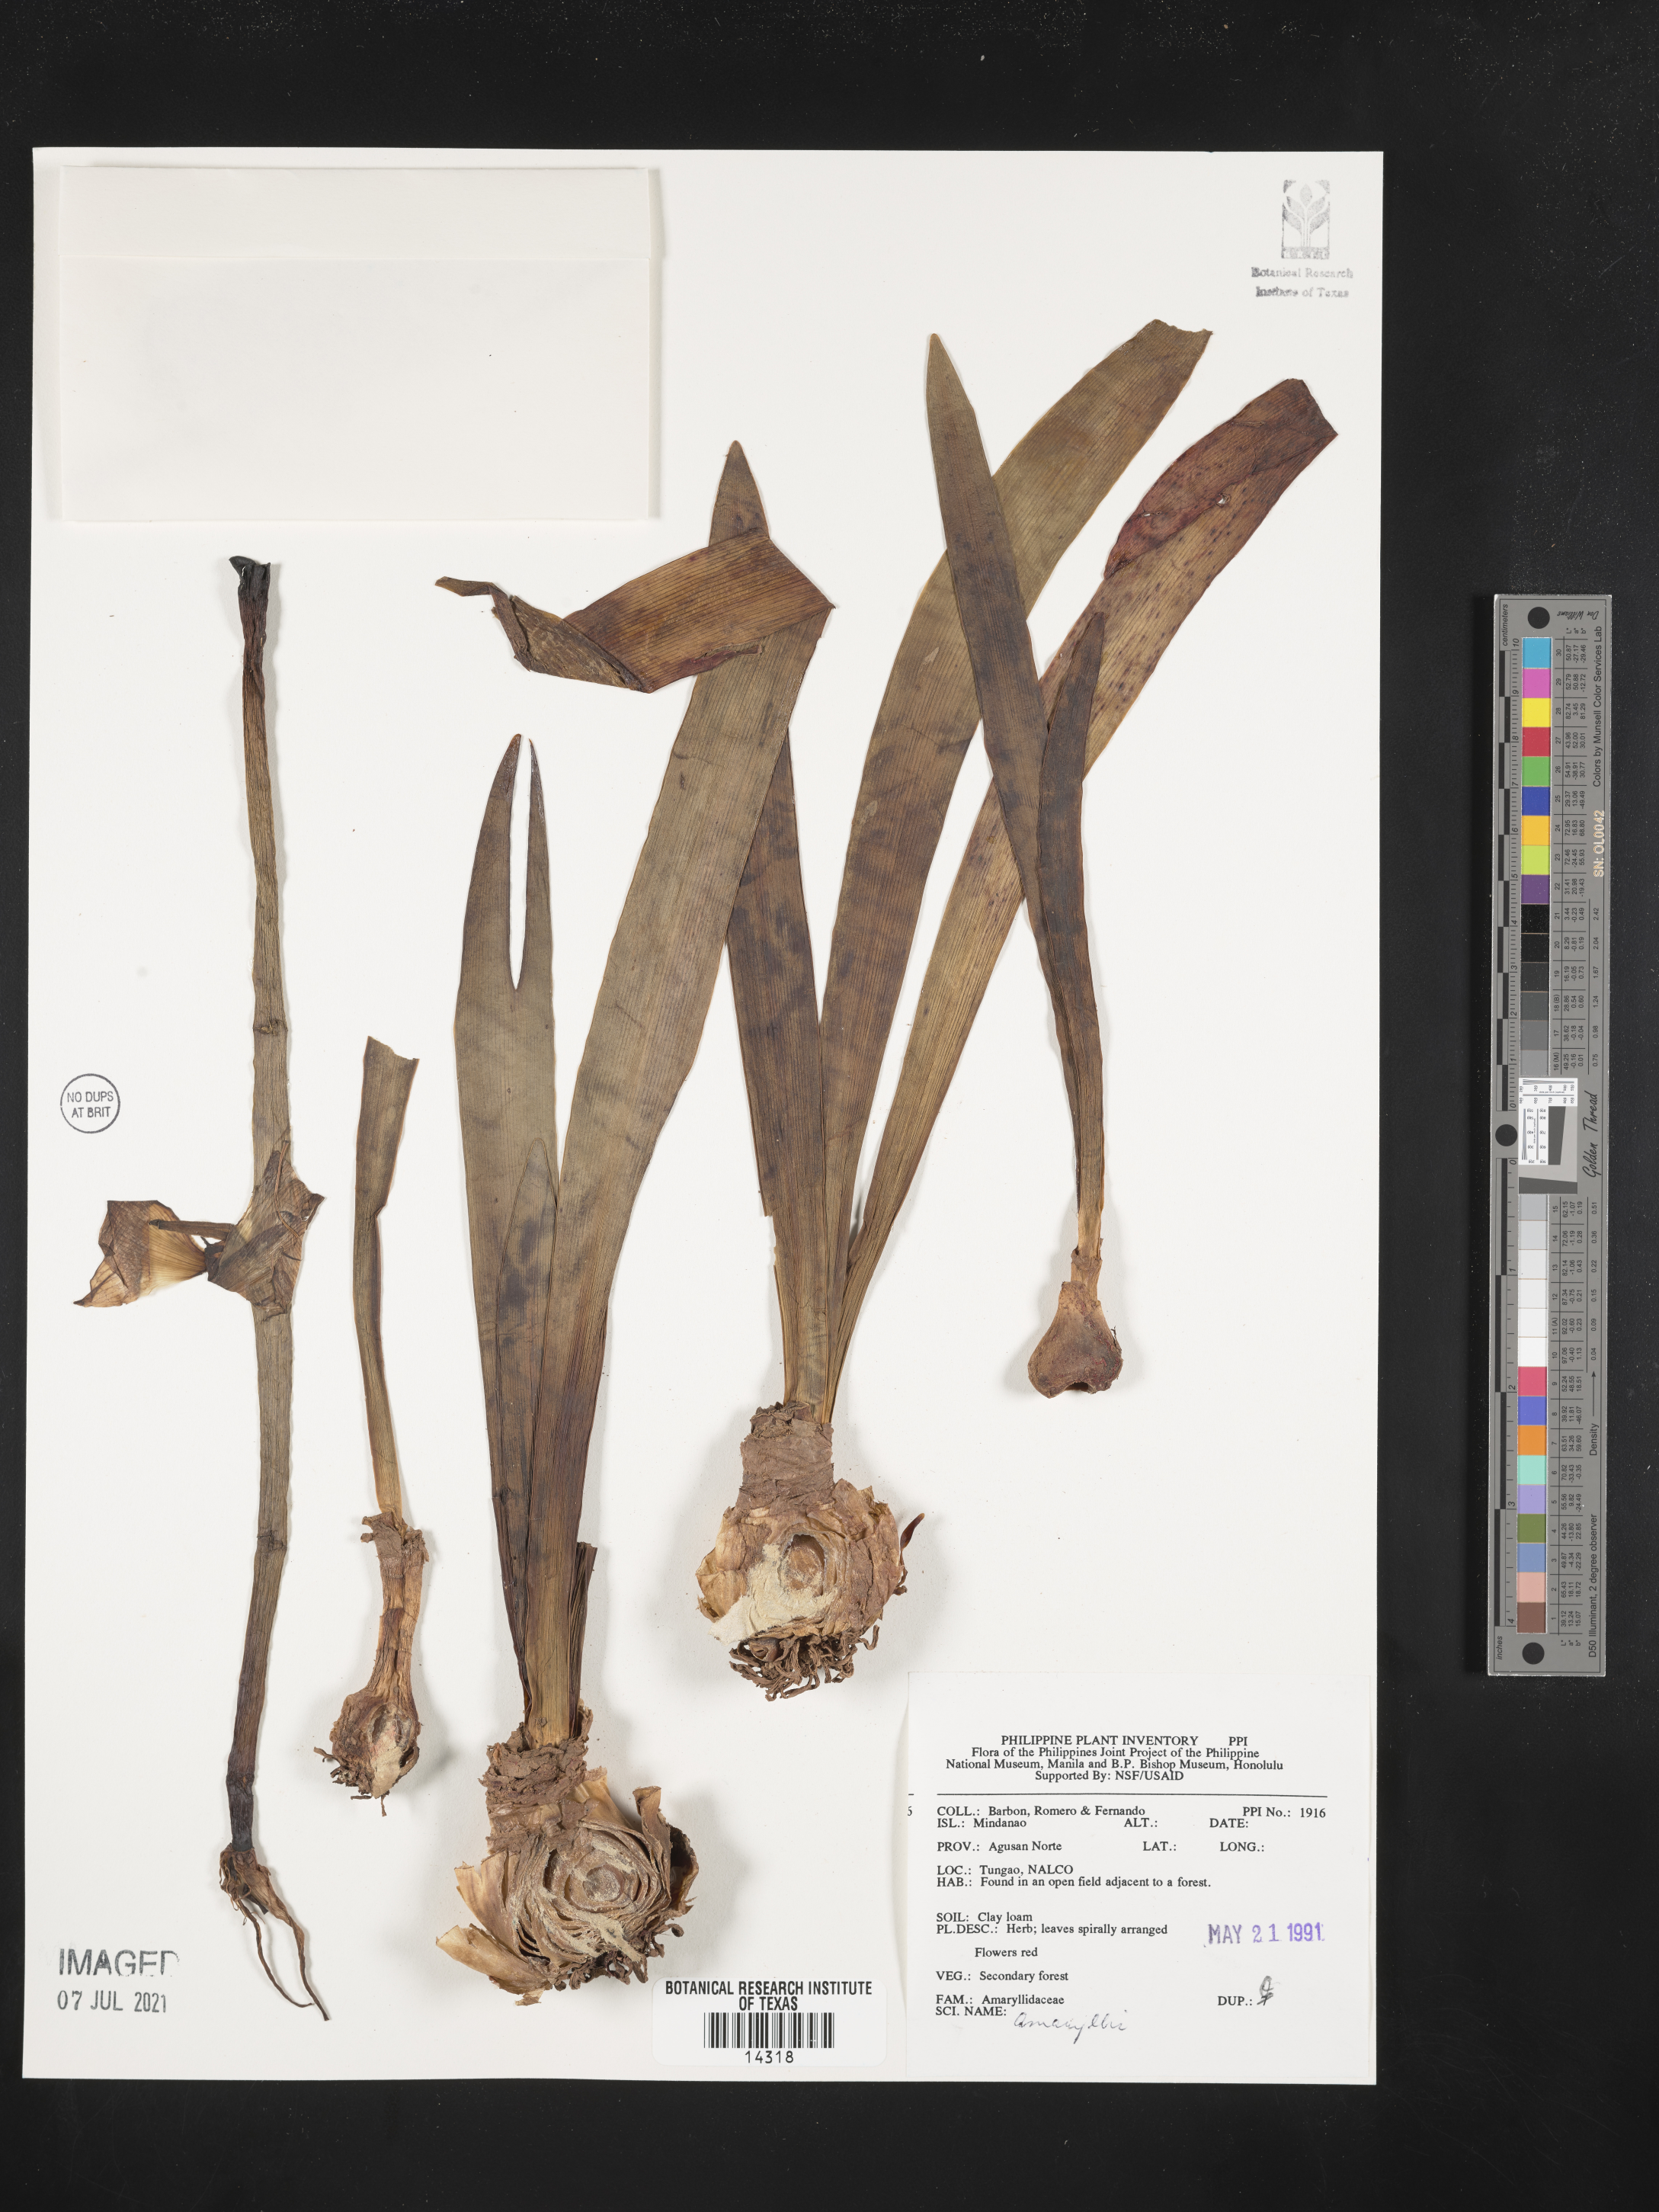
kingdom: Plantae
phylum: Tracheophyta
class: Liliopsida
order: Asparagales
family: Amaryllidaceae
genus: Amaryllis
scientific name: Amaryllis
